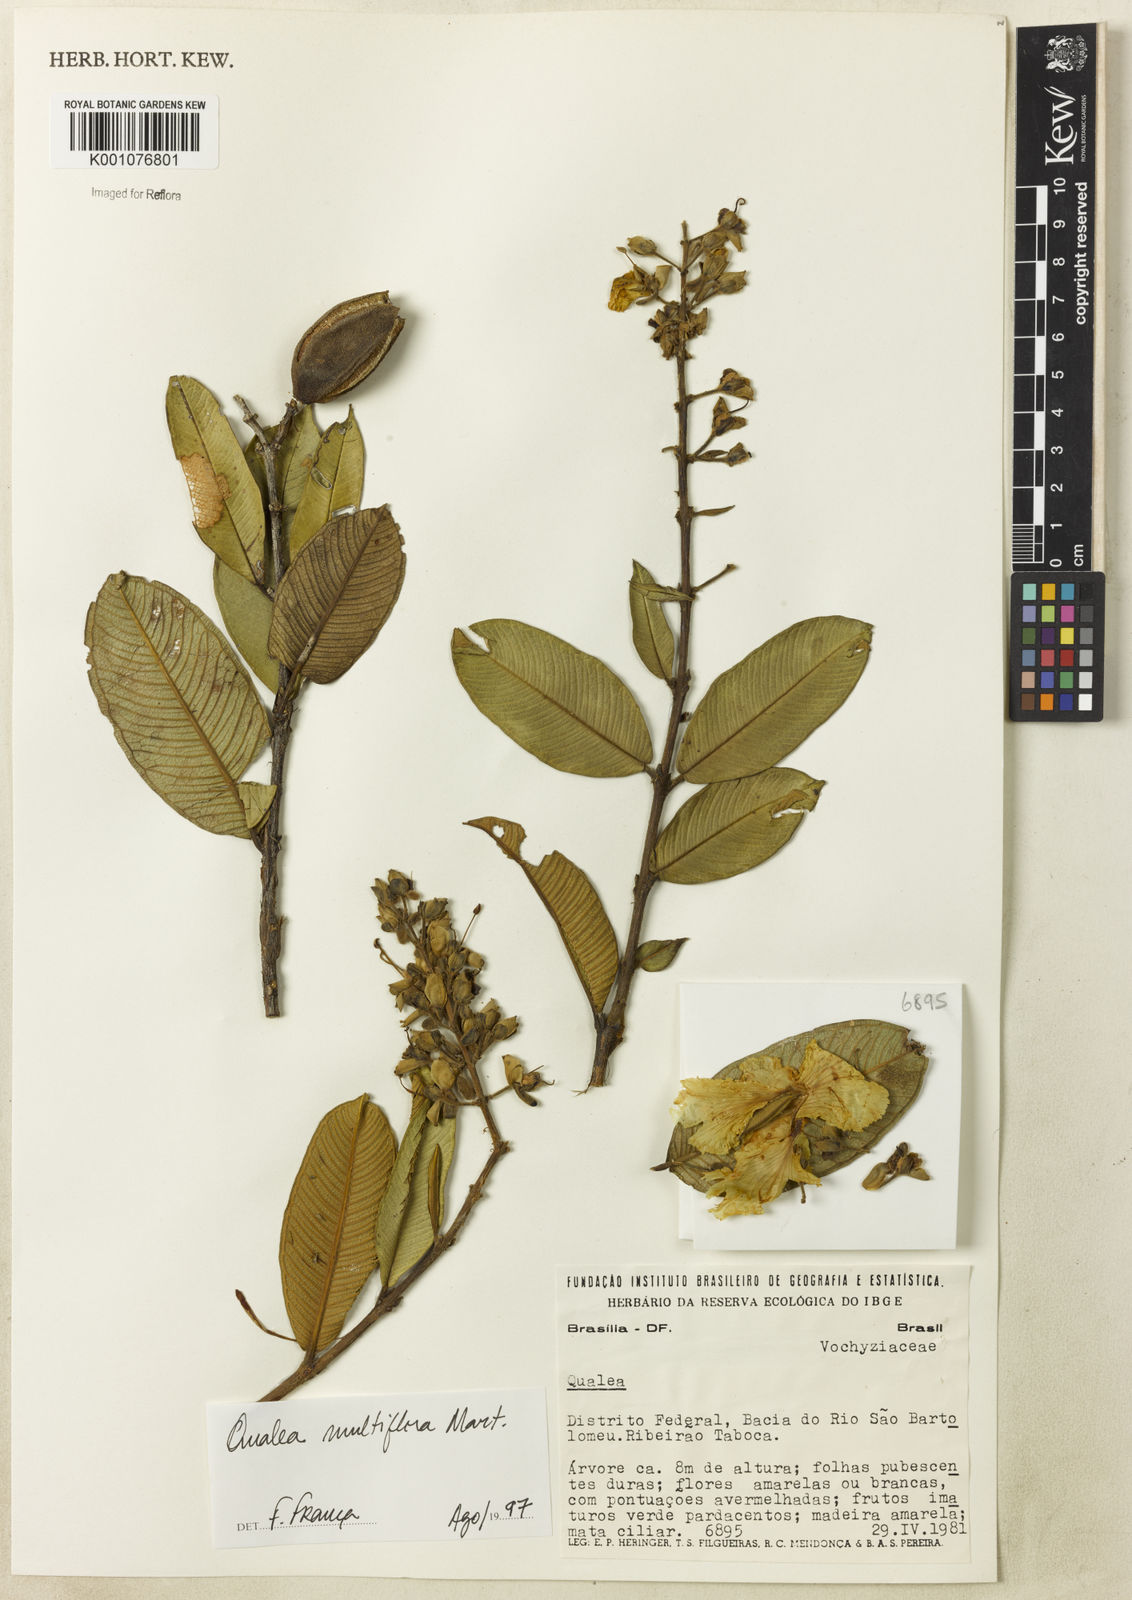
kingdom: Plantae
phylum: Tracheophyta
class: Magnoliopsida
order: Myrtales
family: Vochysiaceae
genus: Qualea
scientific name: Qualea multiflora
